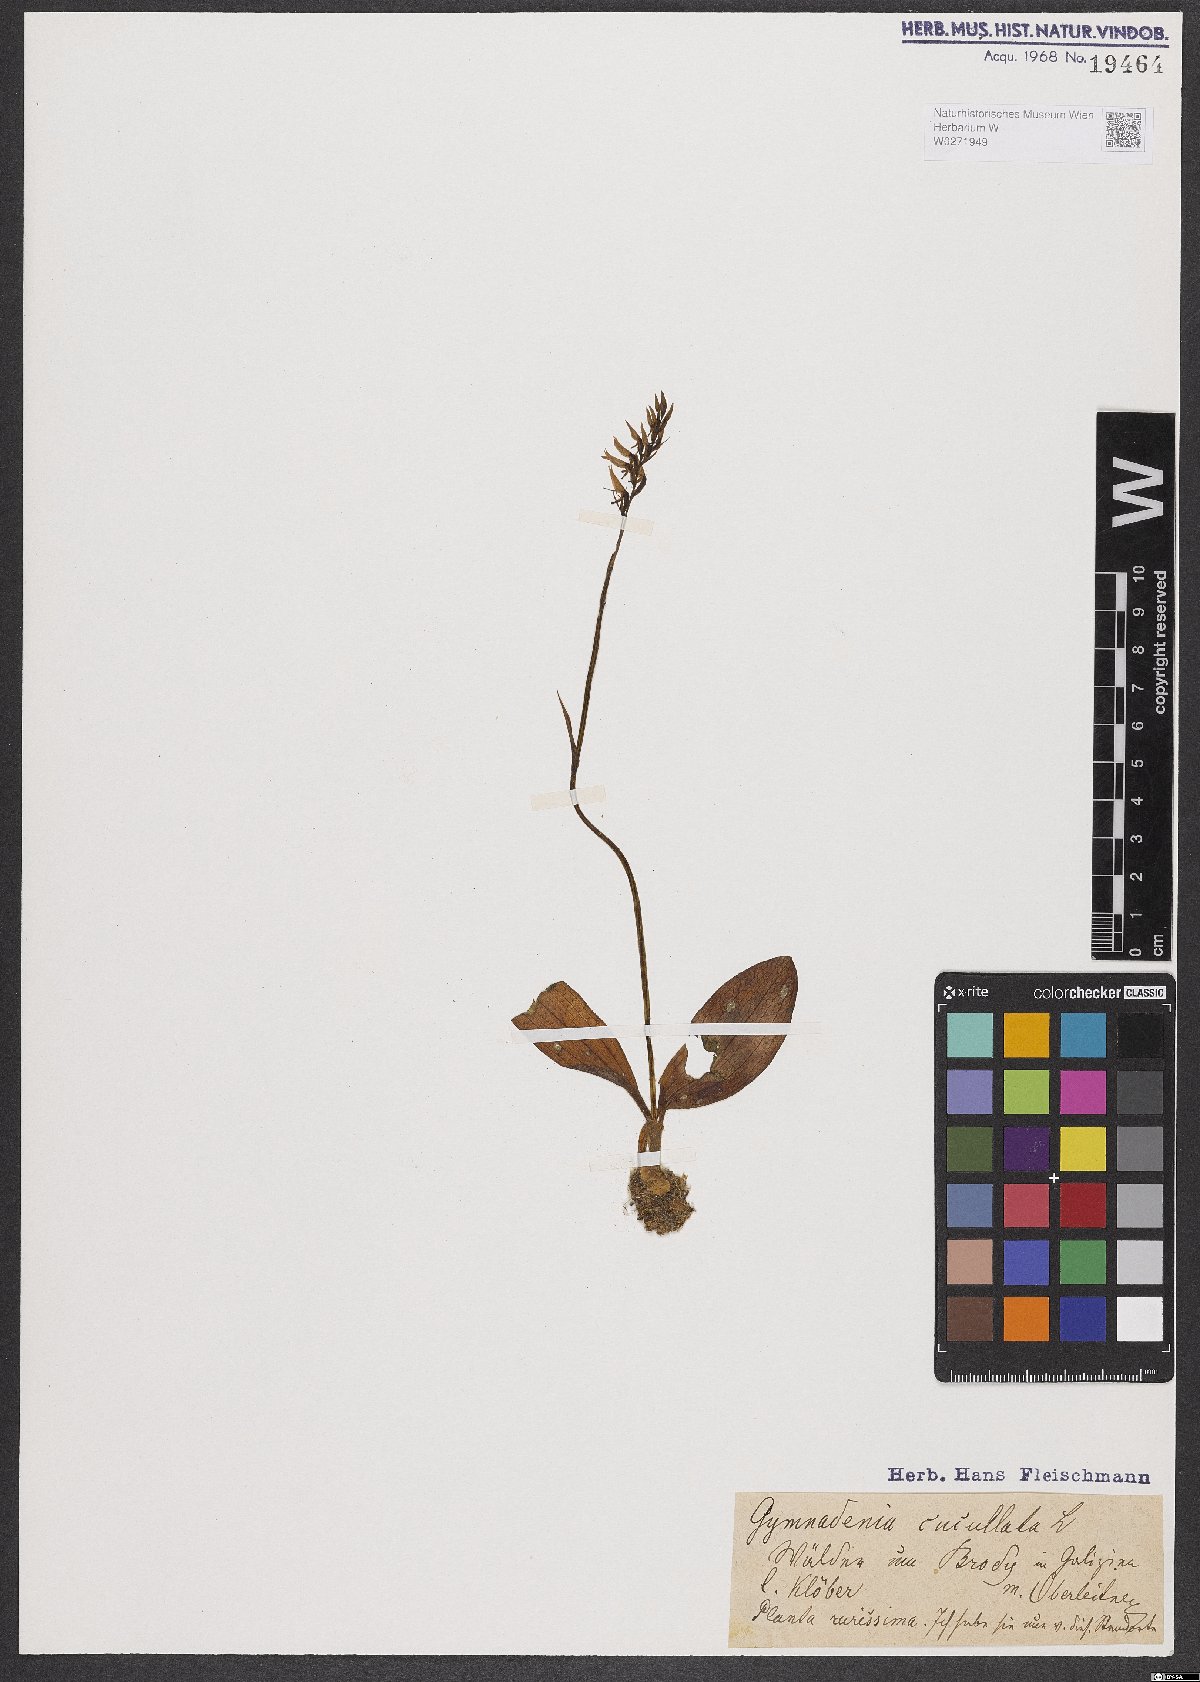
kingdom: Plantae
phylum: Tracheophyta
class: Liliopsida
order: Asparagales
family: Orchidaceae
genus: Hemipilia
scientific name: Hemipilia cucullata
